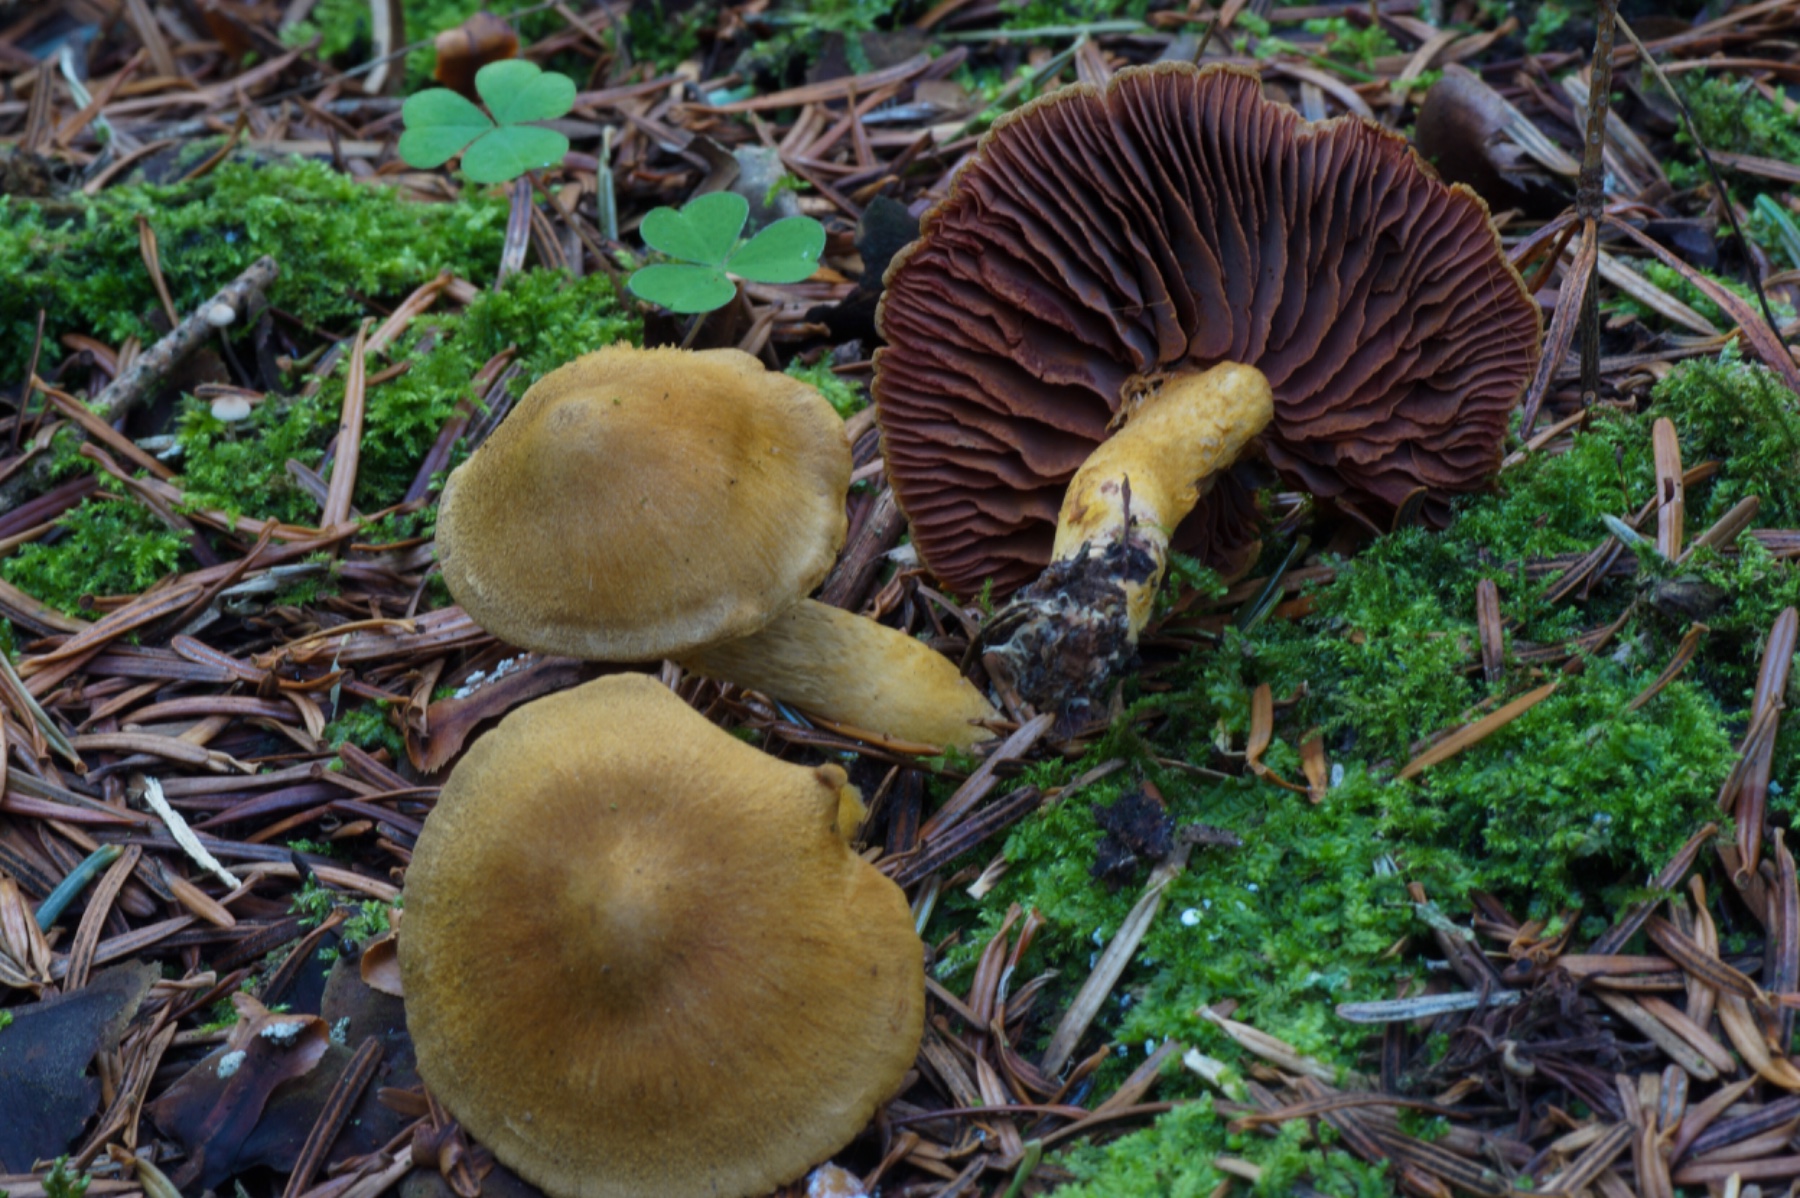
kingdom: Fungi
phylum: Basidiomycota
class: Agaricomycetes
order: Agaricales
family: Cortinariaceae
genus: Cortinarius
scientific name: Cortinarius
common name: cinnoberbladet slørhat
